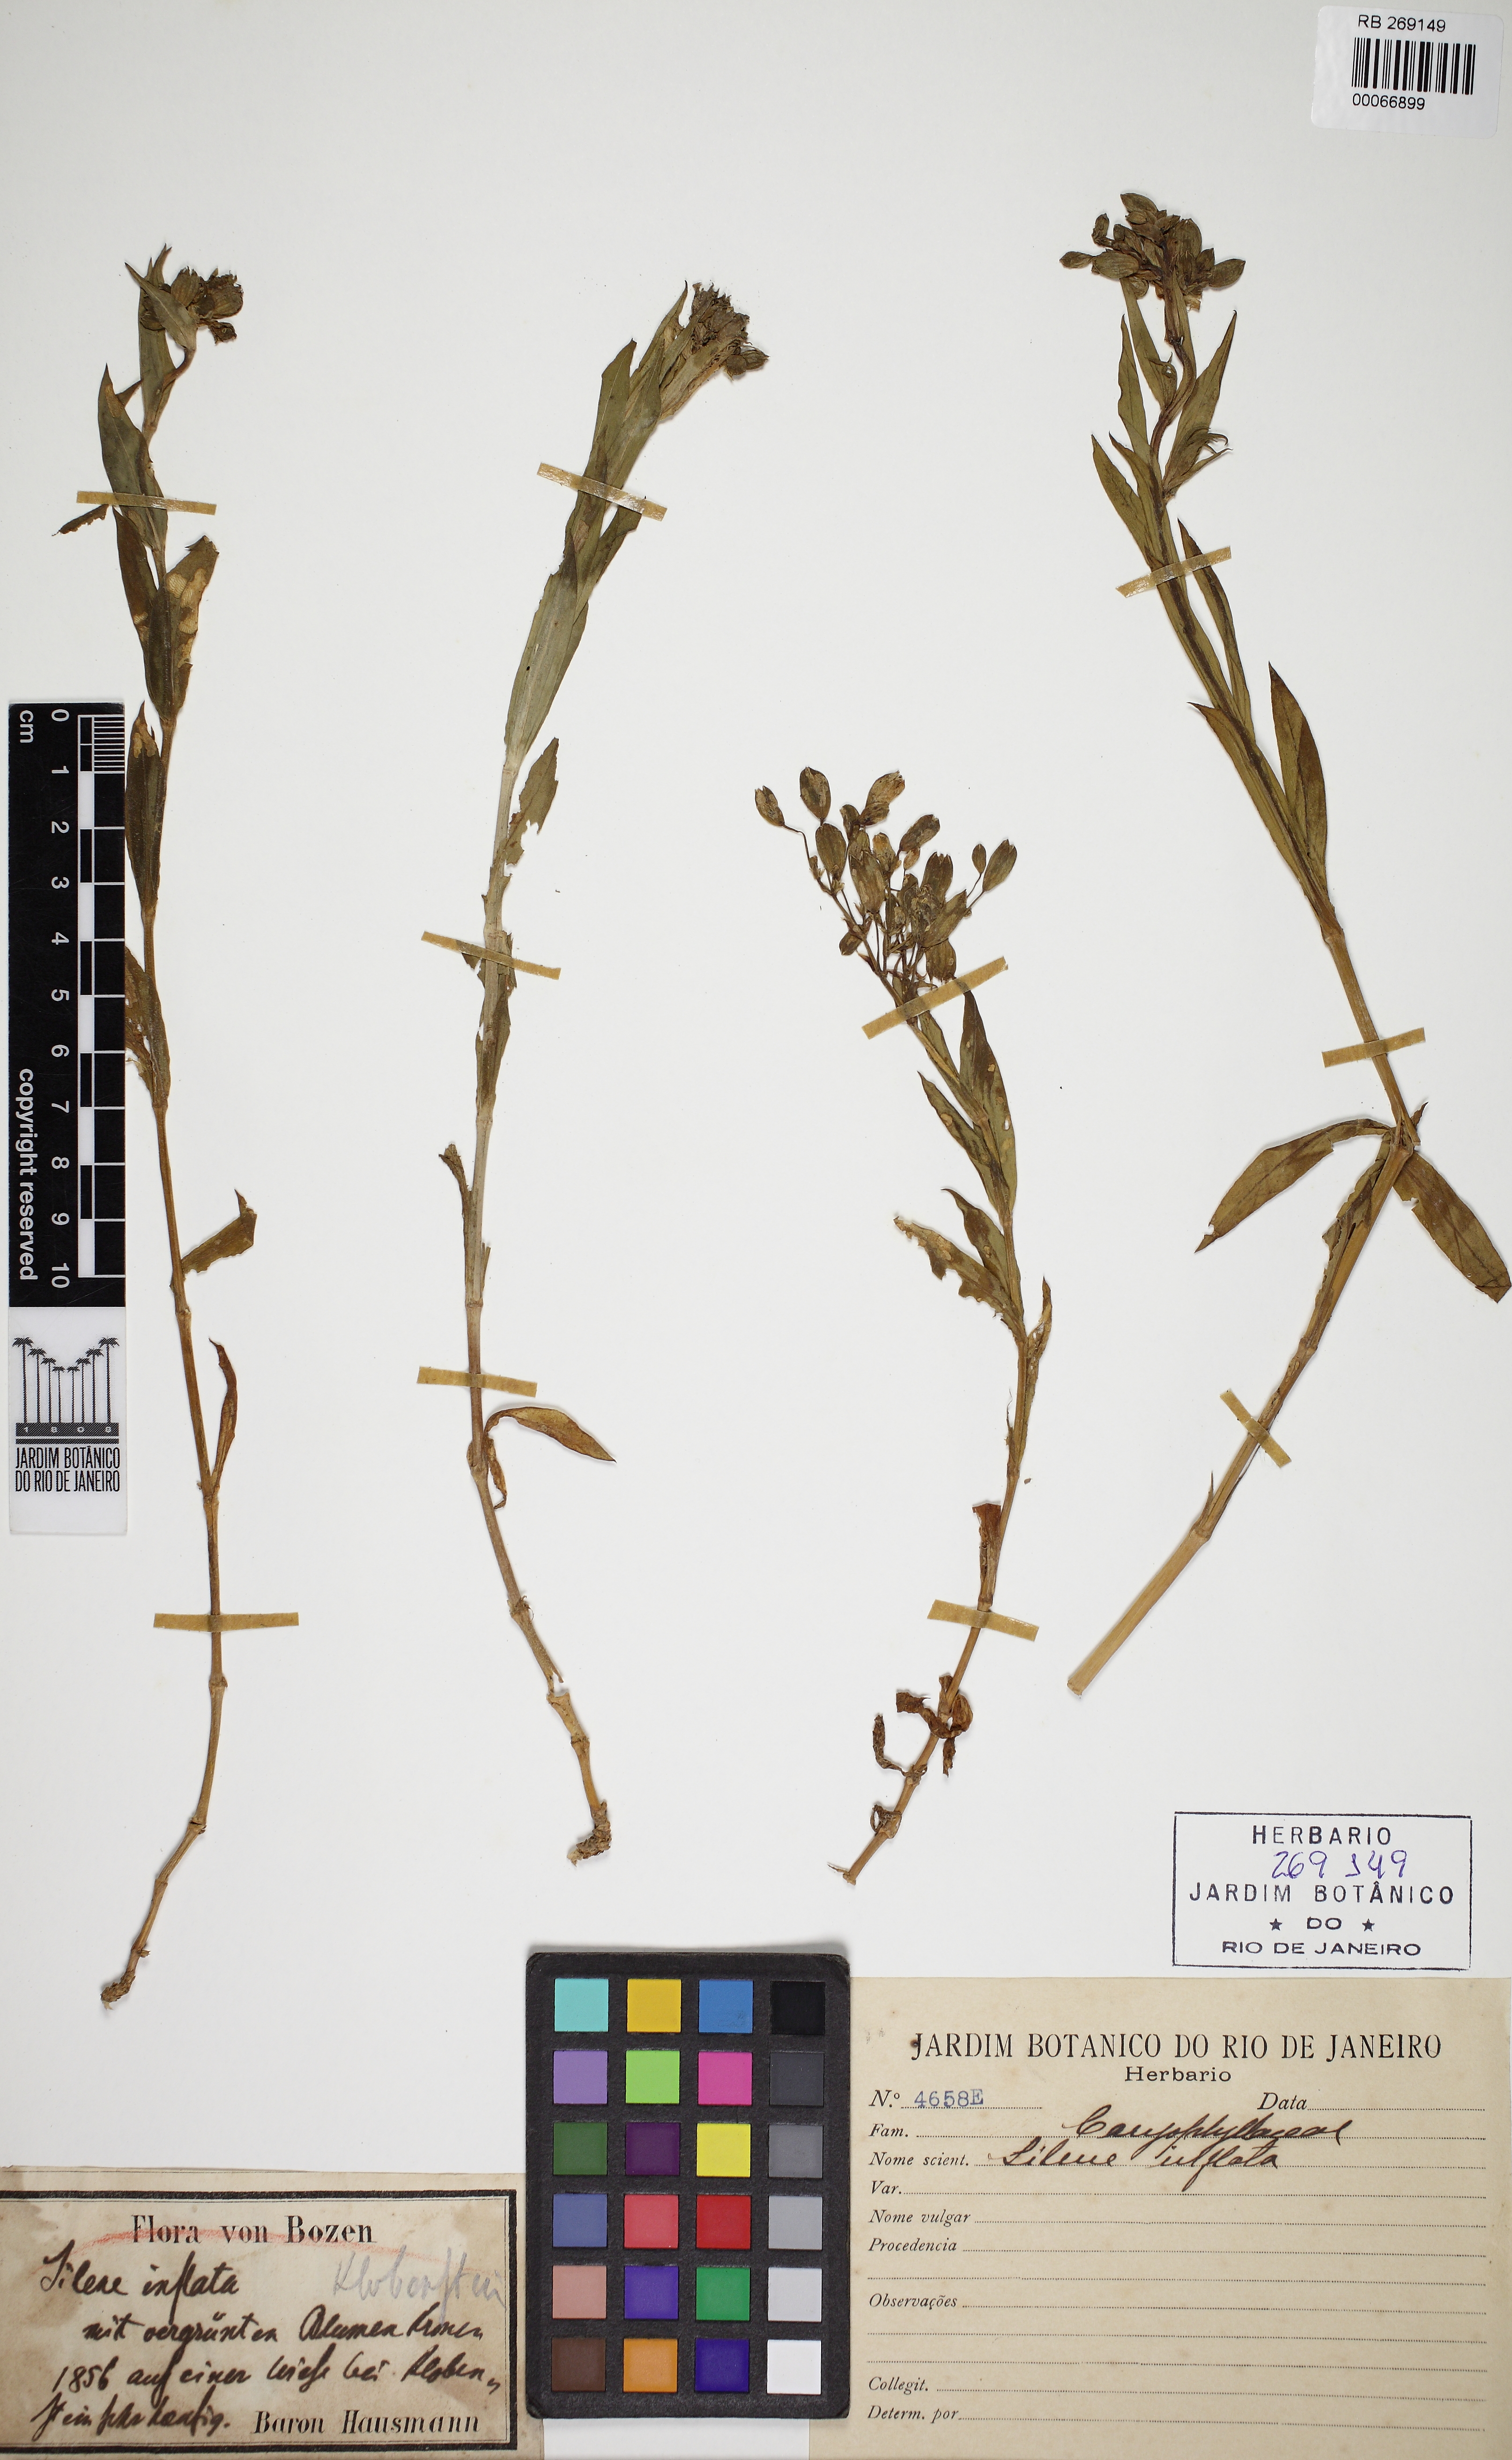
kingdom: Plantae
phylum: Tracheophyta
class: Magnoliopsida
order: Caryophyllales
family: Caryophyllaceae
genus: Silene
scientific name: Silene vulgaris
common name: Bladder campion
